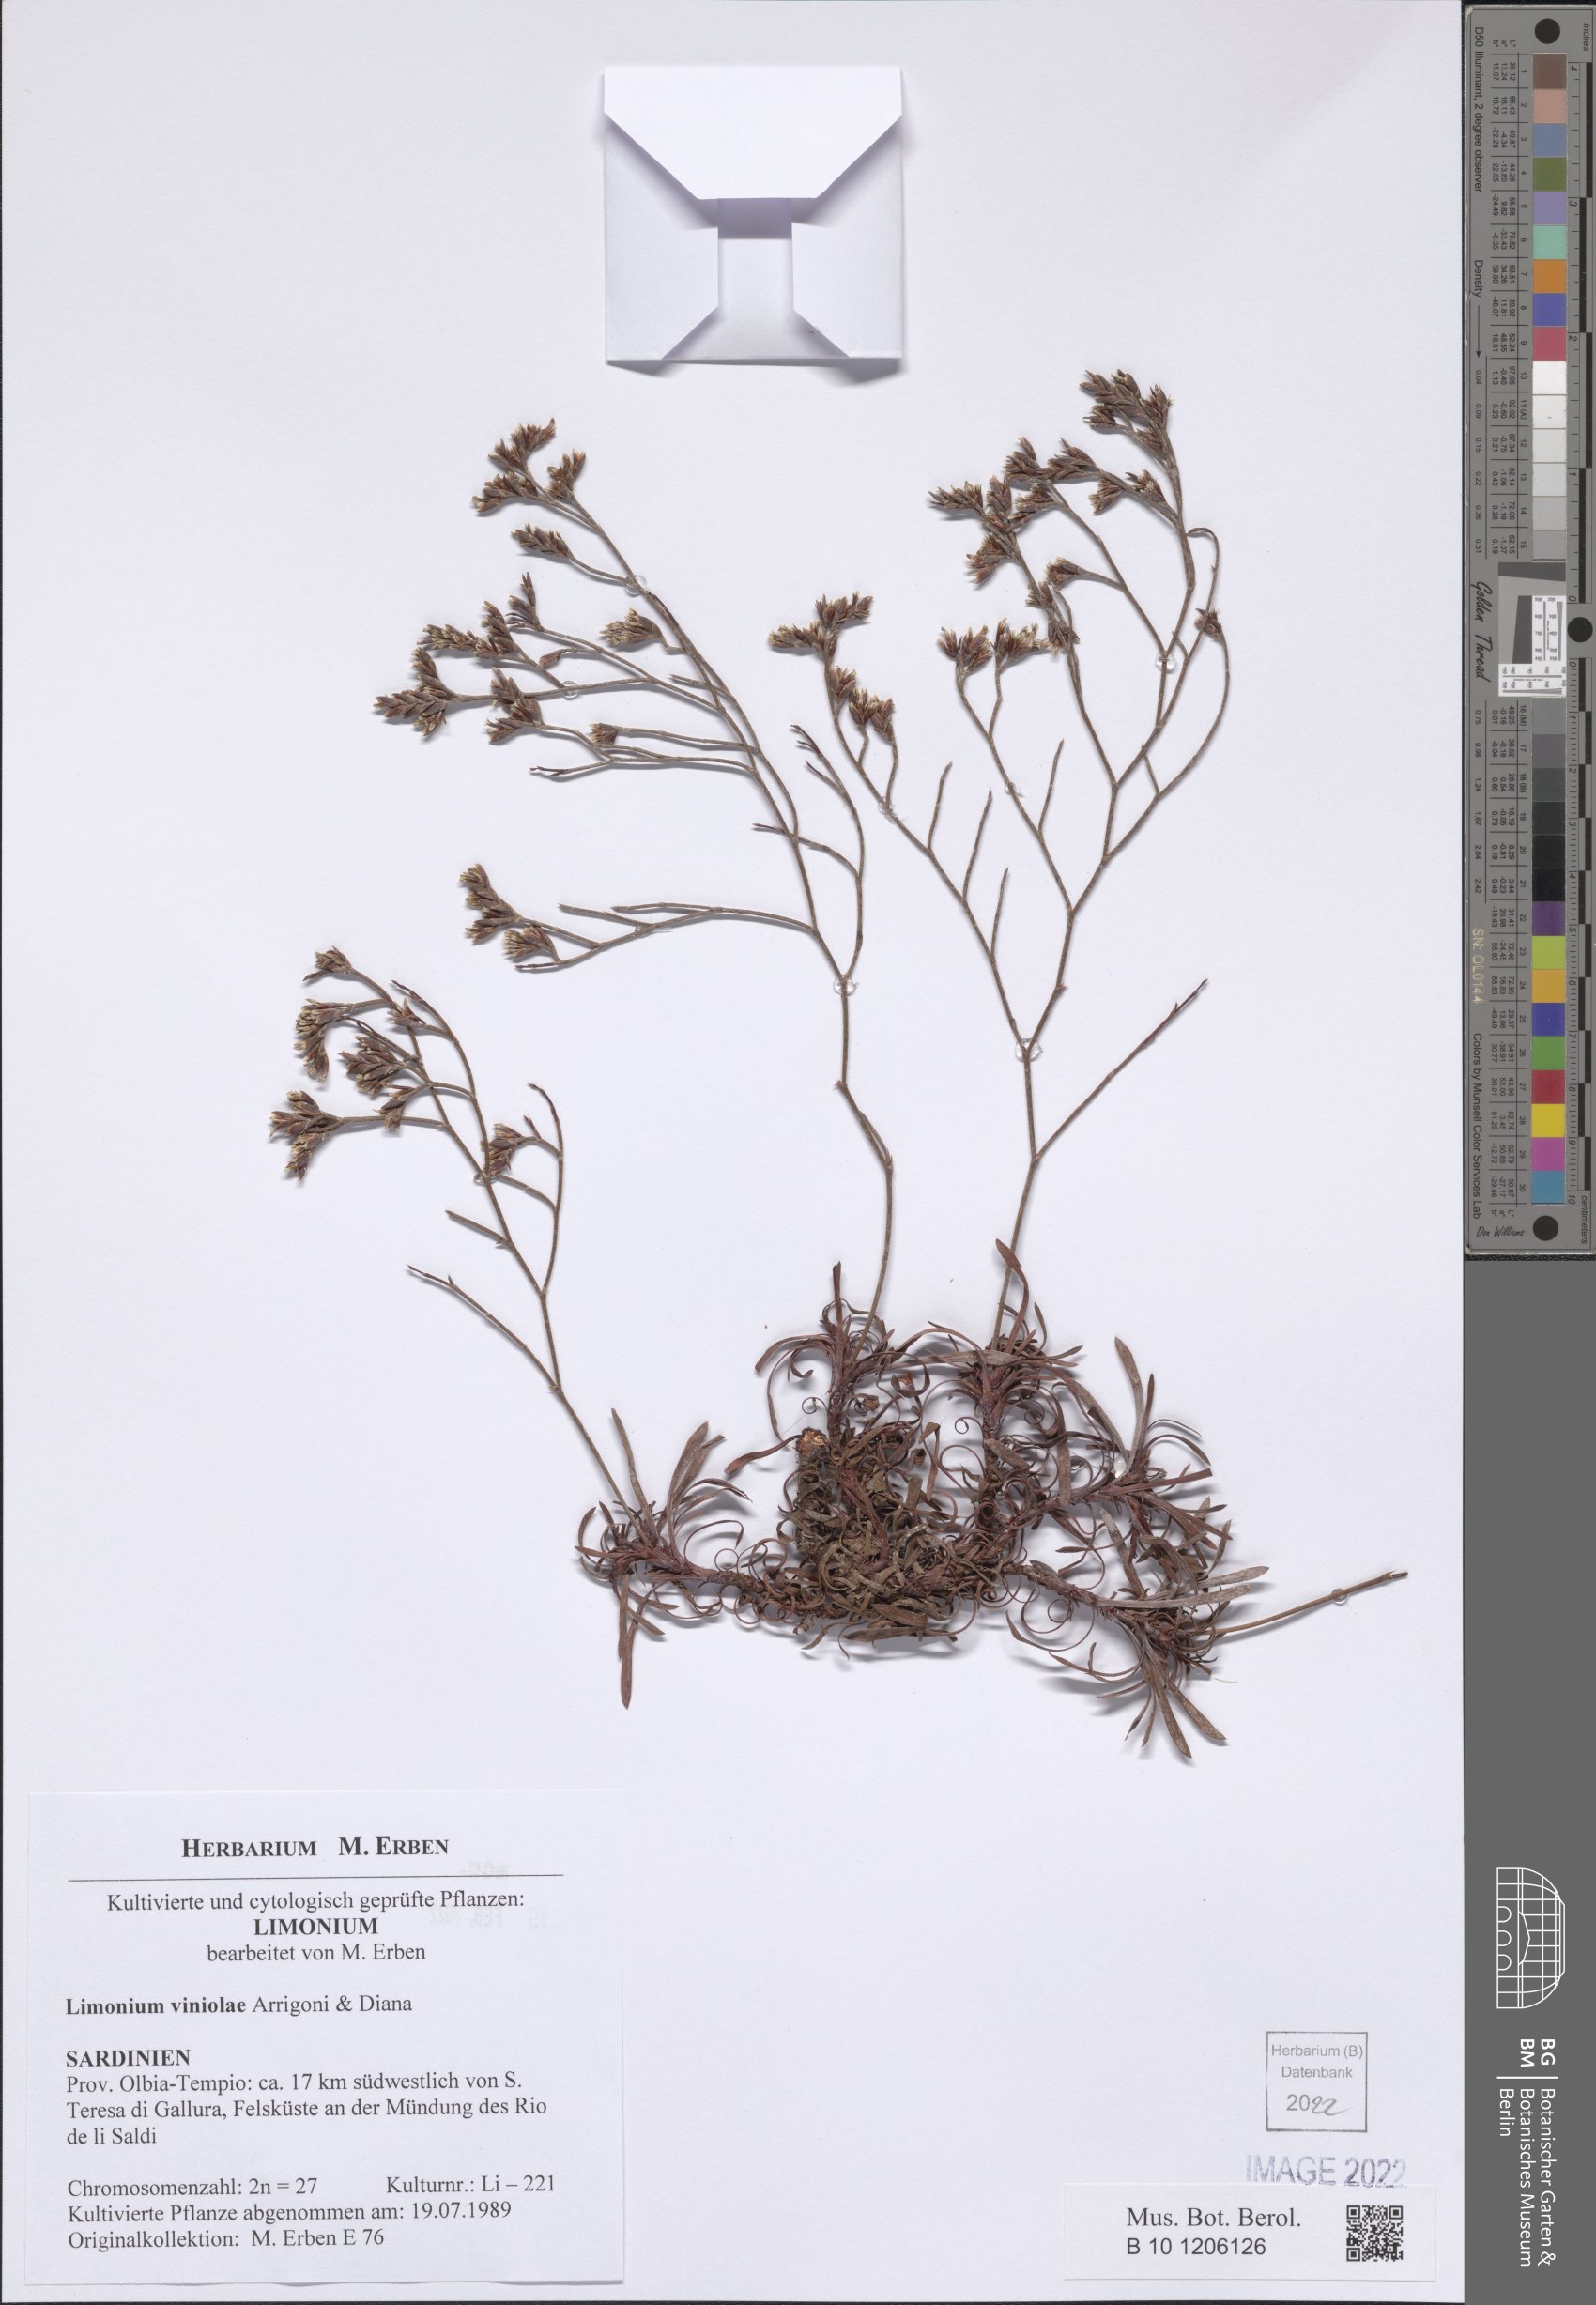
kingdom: Plantae
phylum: Tracheophyta
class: Magnoliopsida
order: Caryophyllales
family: Plumbaginaceae
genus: Limonium
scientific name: Limonium viniolae
